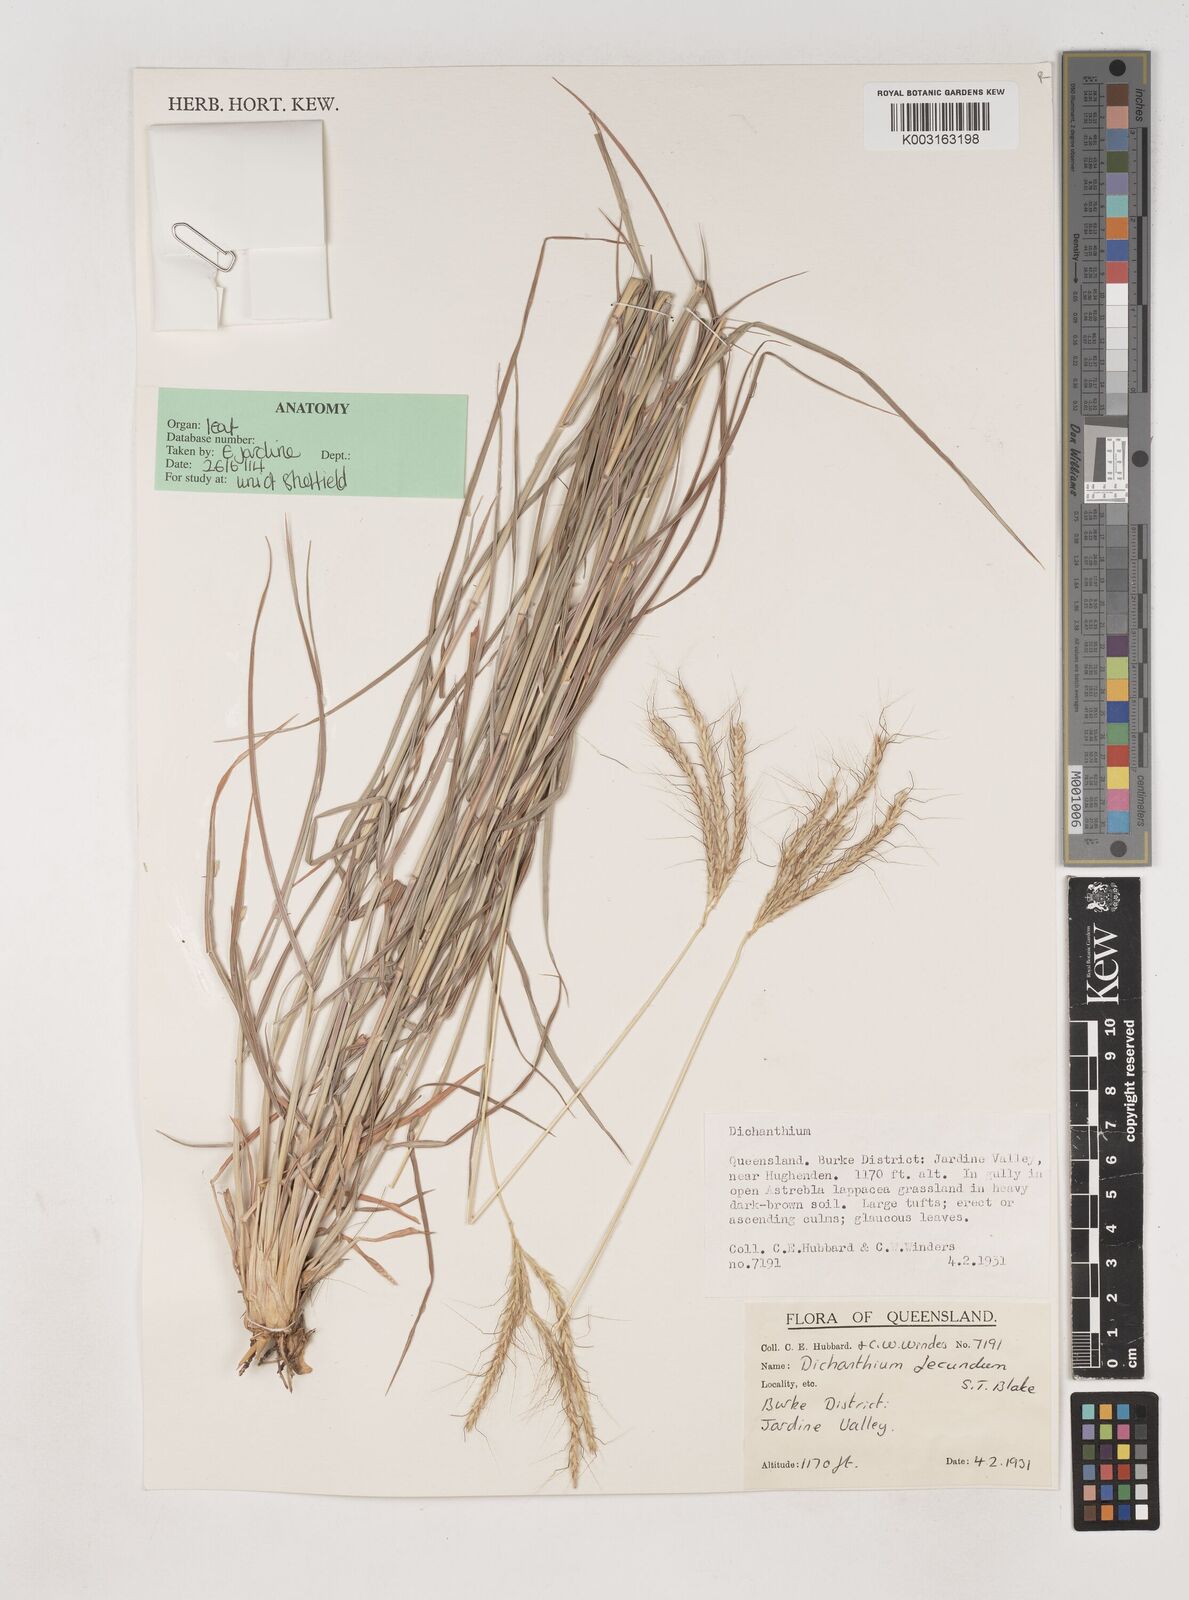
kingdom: Plantae
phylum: Tracheophyta
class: Liliopsida
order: Poales
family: Poaceae
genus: Dichanthium
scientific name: Dichanthium fecundum
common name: Bundle-bundle
